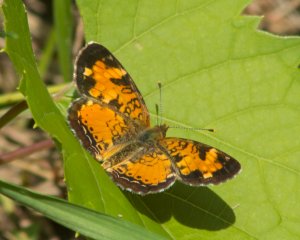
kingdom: Animalia
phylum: Arthropoda
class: Insecta
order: Lepidoptera
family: Nymphalidae
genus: Phyciodes
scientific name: Phyciodes tharos
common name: Northern Crescent
